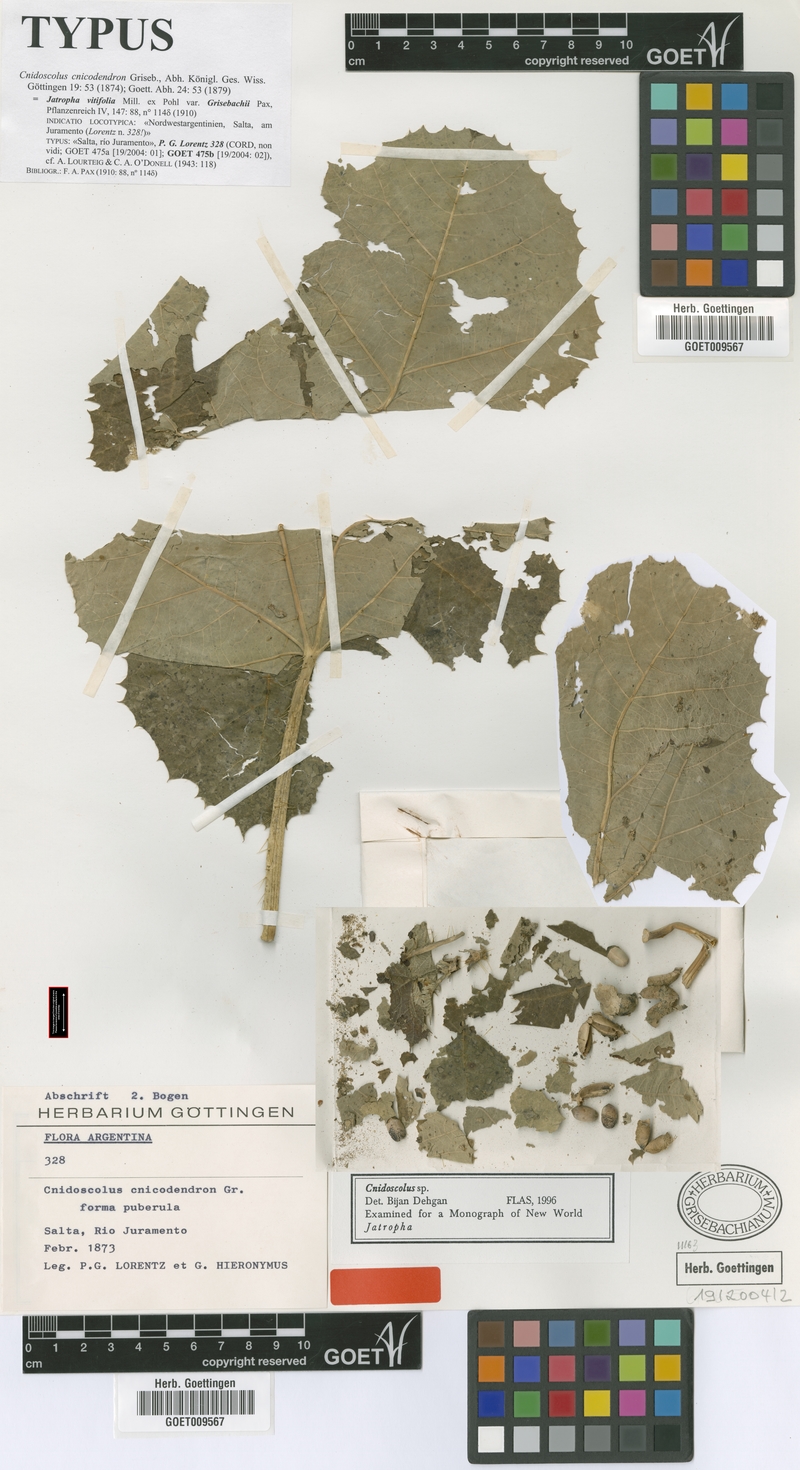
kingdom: Plantae
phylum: Tracheophyta
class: Magnoliopsida
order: Malpighiales
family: Euphorbiaceae
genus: Cnidoscolus
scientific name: Cnidoscolus cnicodendron
